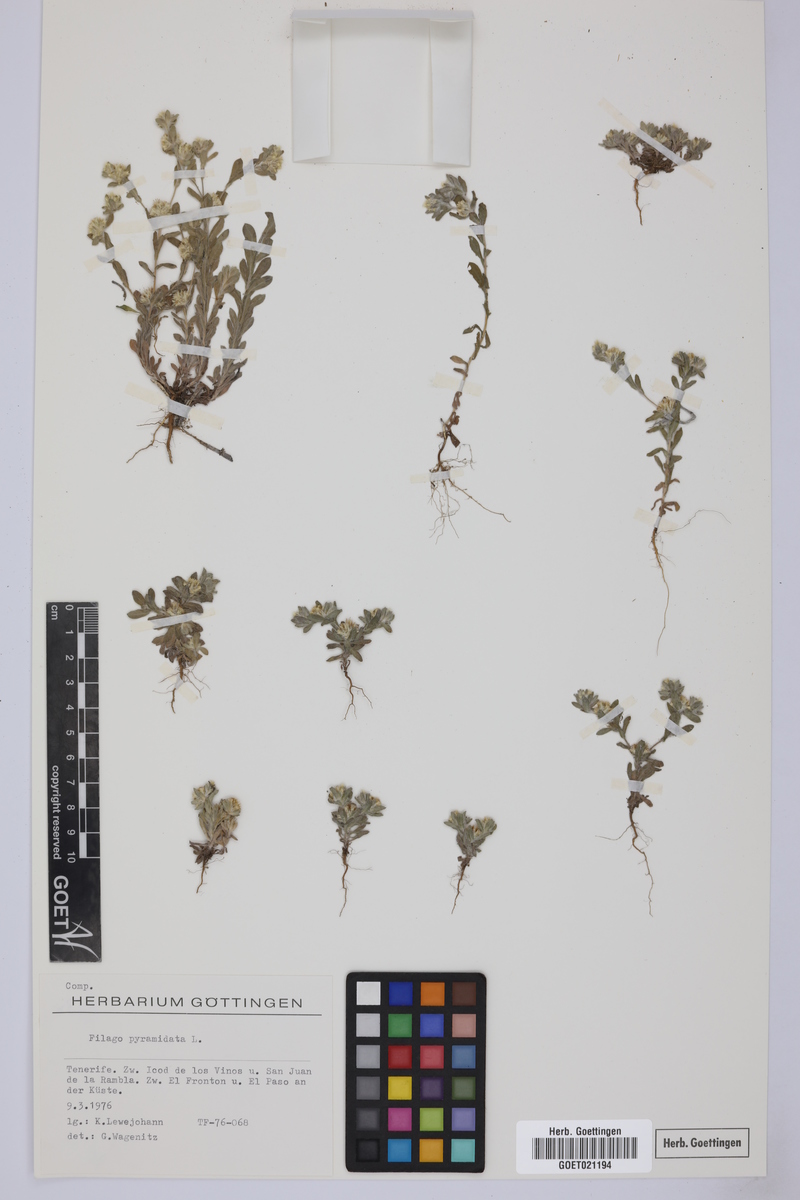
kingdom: Plantae
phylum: Tracheophyta
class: Magnoliopsida
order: Asterales
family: Asteraceae
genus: Filago
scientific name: Filago pyramidata
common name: Broad-leaved cudweed
